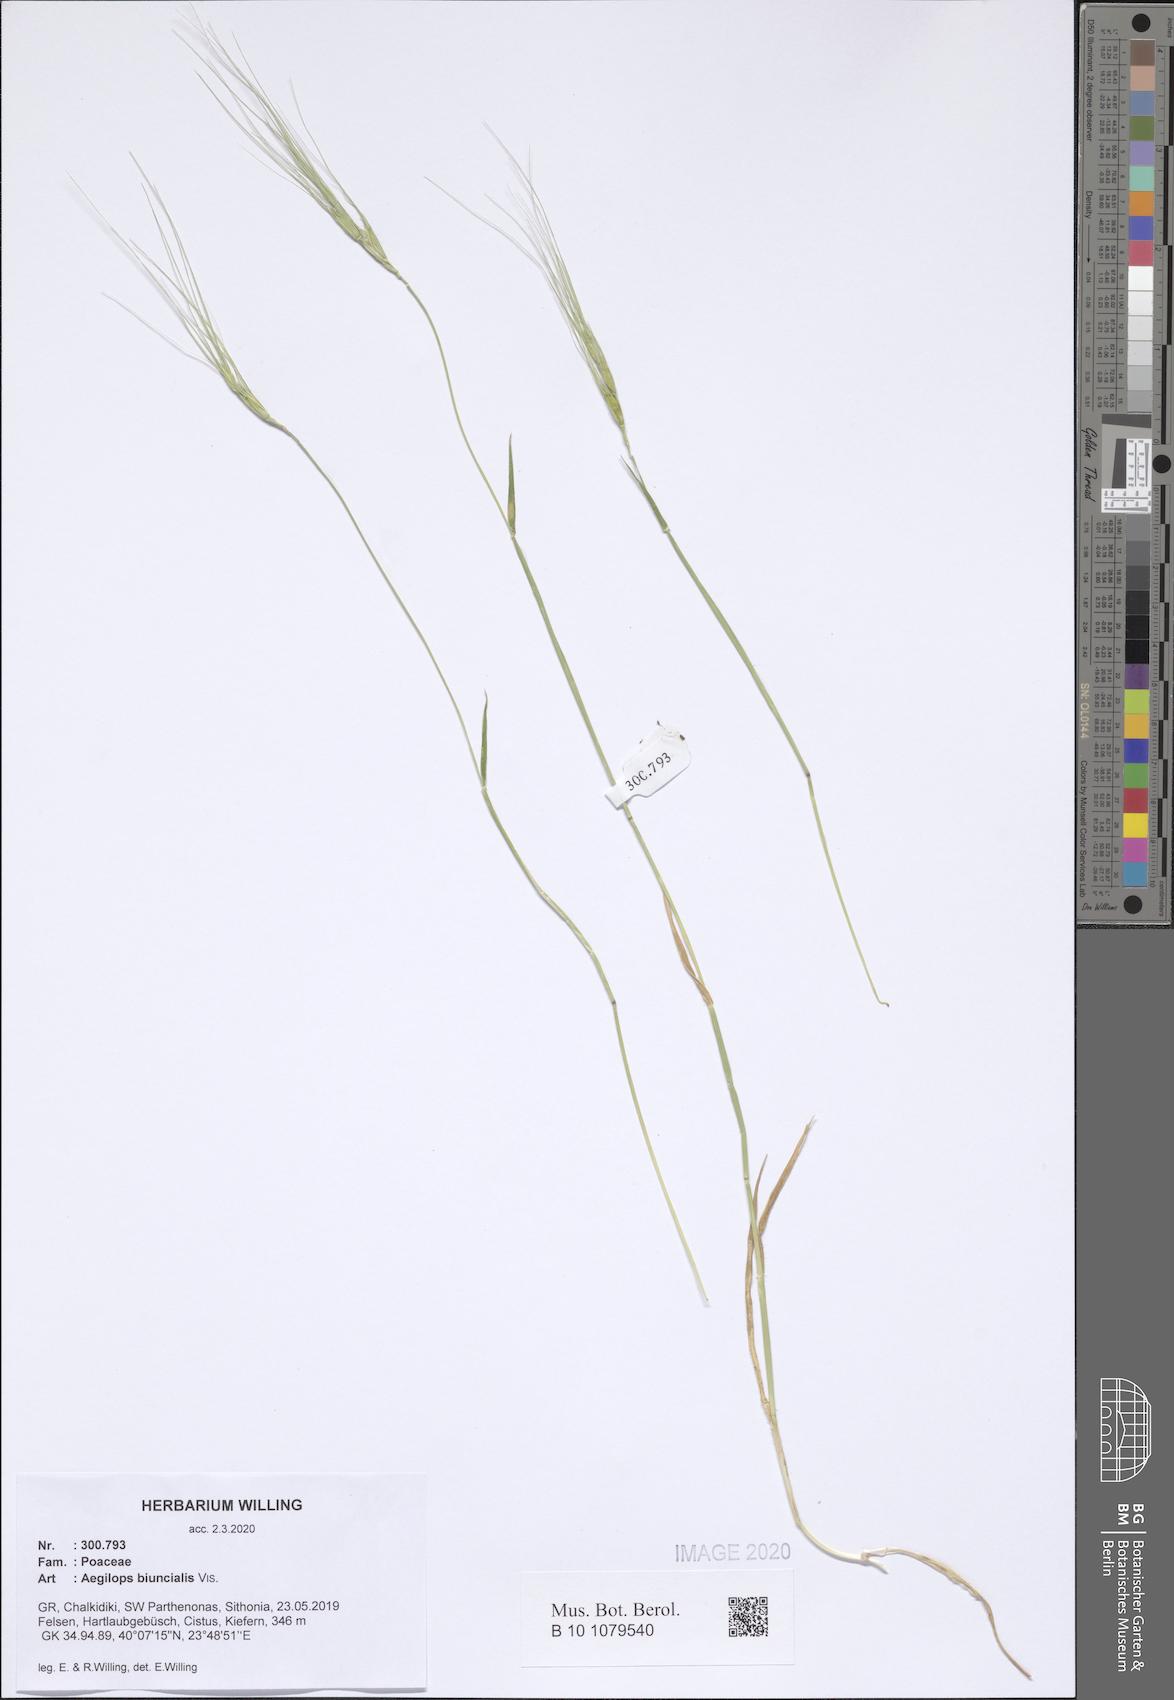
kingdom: Plantae
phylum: Tracheophyta
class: Liliopsida
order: Poales
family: Poaceae
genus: Aegilops
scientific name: Aegilops biuncialis
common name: Mediterranean aegilops
